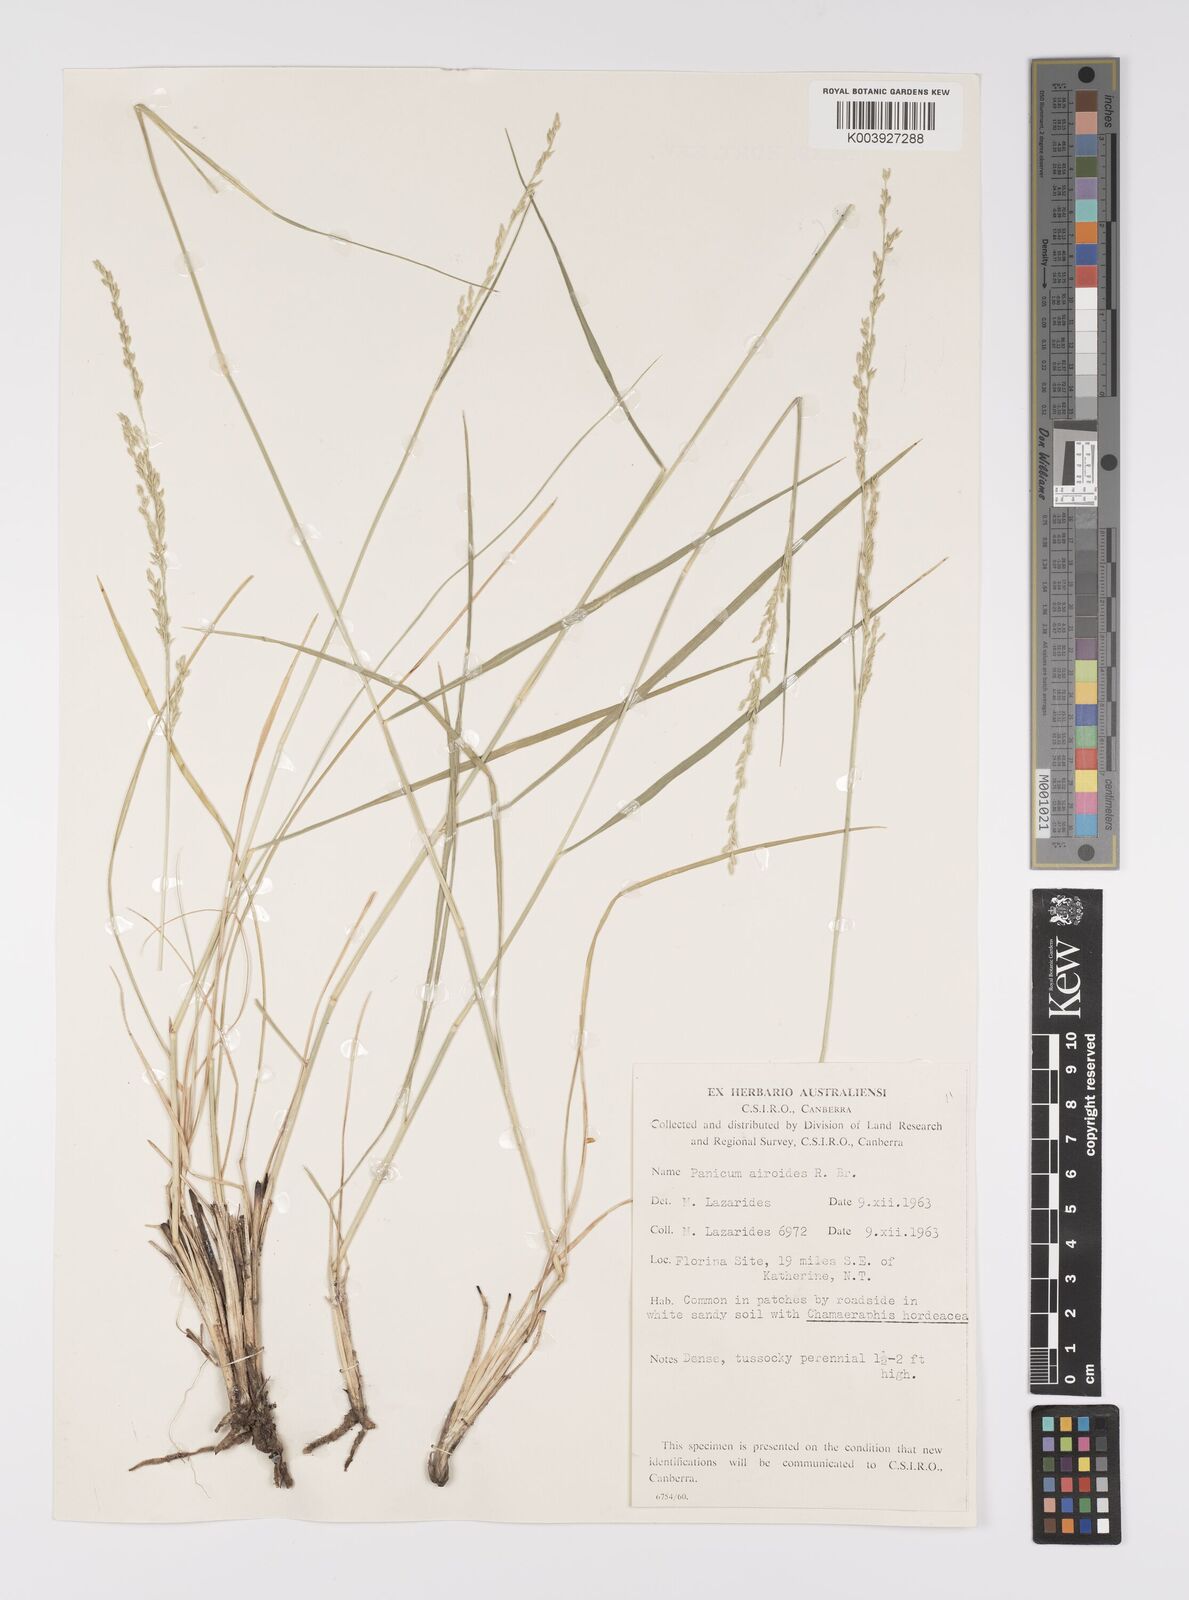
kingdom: Plantae
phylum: Tracheophyta
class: Liliopsida
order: Poales
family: Poaceae
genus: Whiteochloa
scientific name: Whiteochloa airoides
